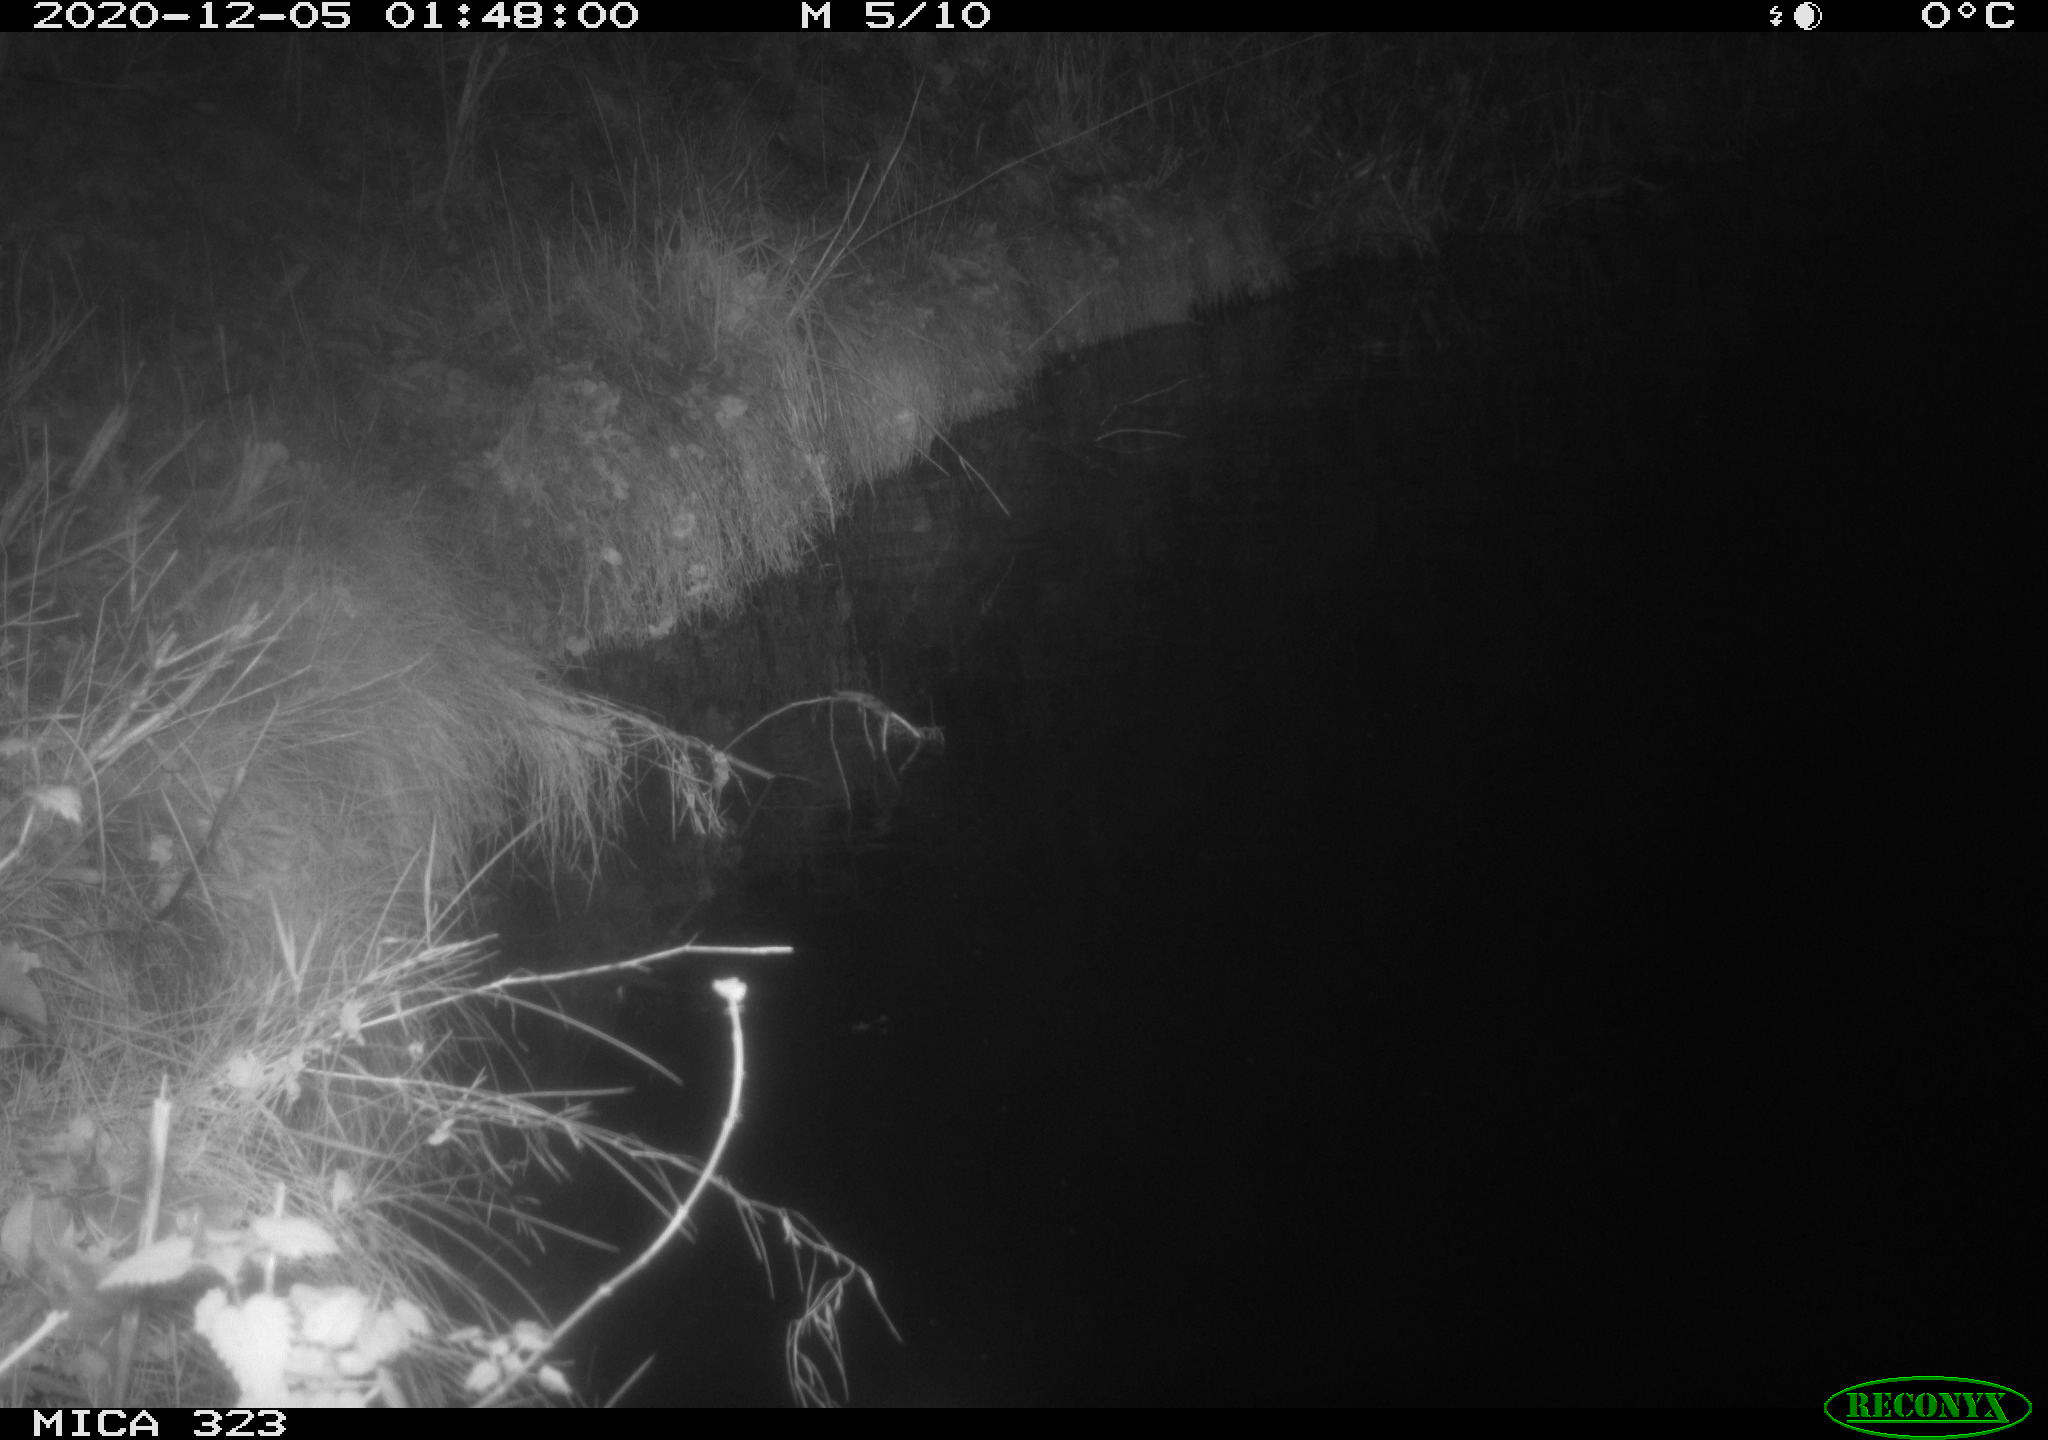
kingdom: Animalia
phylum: Chordata
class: Mammalia
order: Rodentia
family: Myocastoridae
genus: Myocastor
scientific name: Myocastor coypus
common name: Coypu
